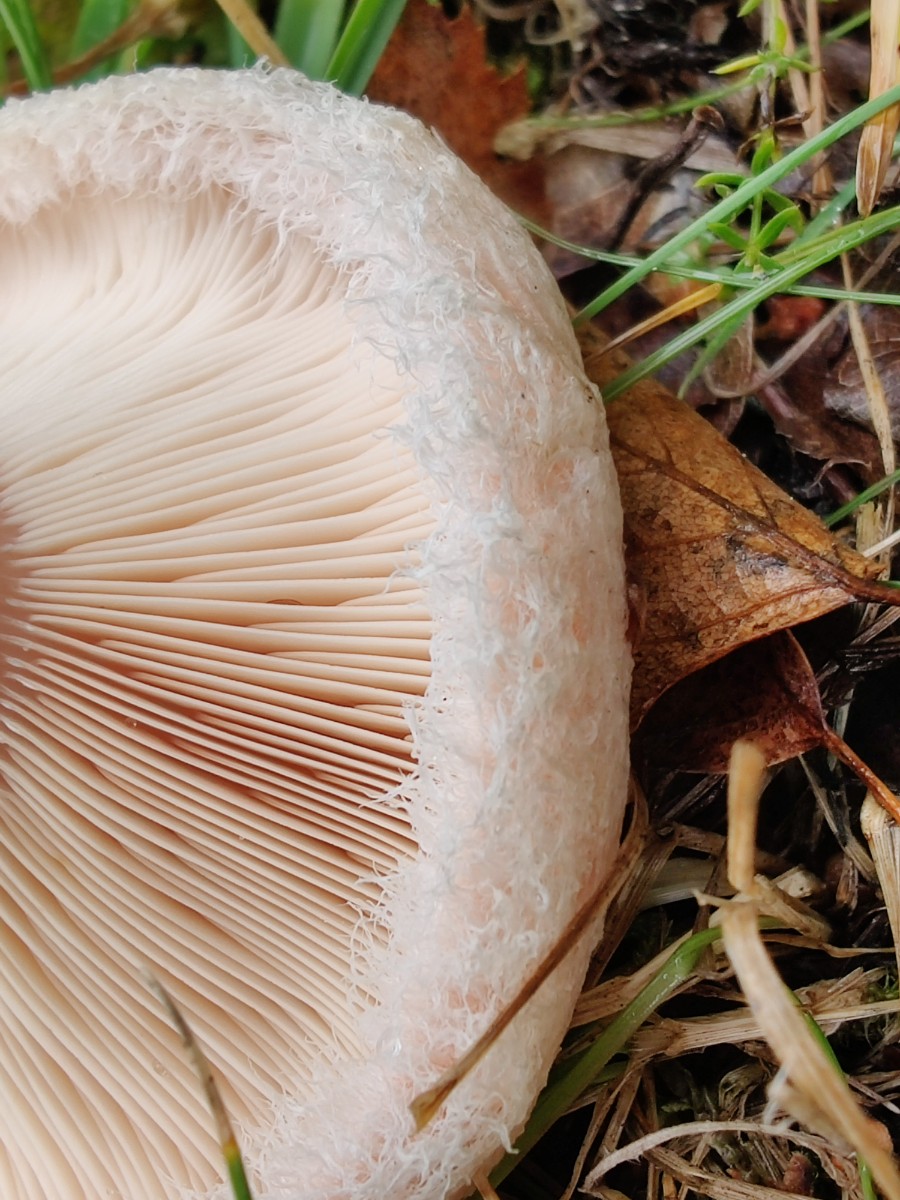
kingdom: Fungi
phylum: Basidiomycota
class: Agaricomycetes
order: Russulales
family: Russulaceae
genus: Lactarius
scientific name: Lactarius pubescens
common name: dunet mælkehat
